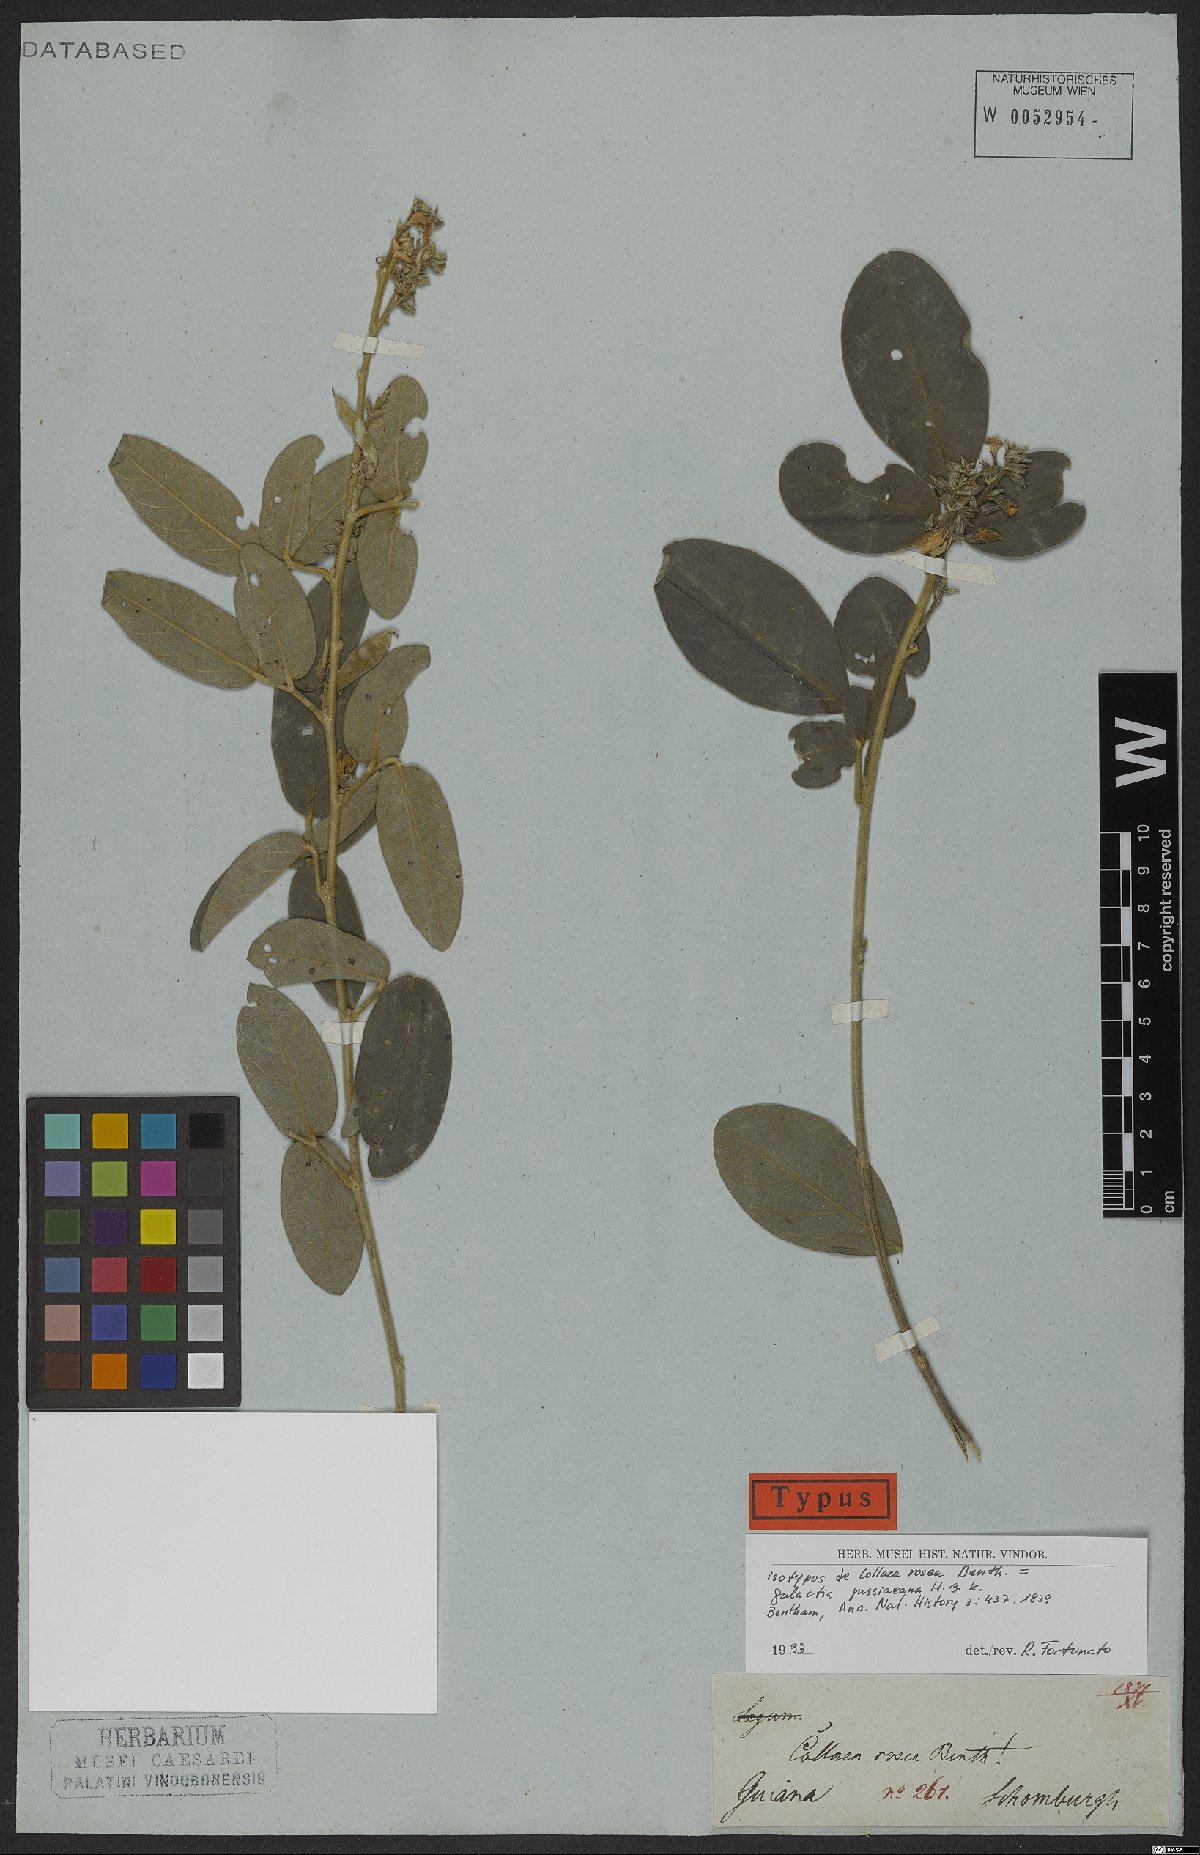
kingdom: Plantae
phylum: Tracheophyta
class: Magnoliopsida
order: Fabales
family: Fabaceae
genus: Galactia
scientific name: Galactia jussiaeana
